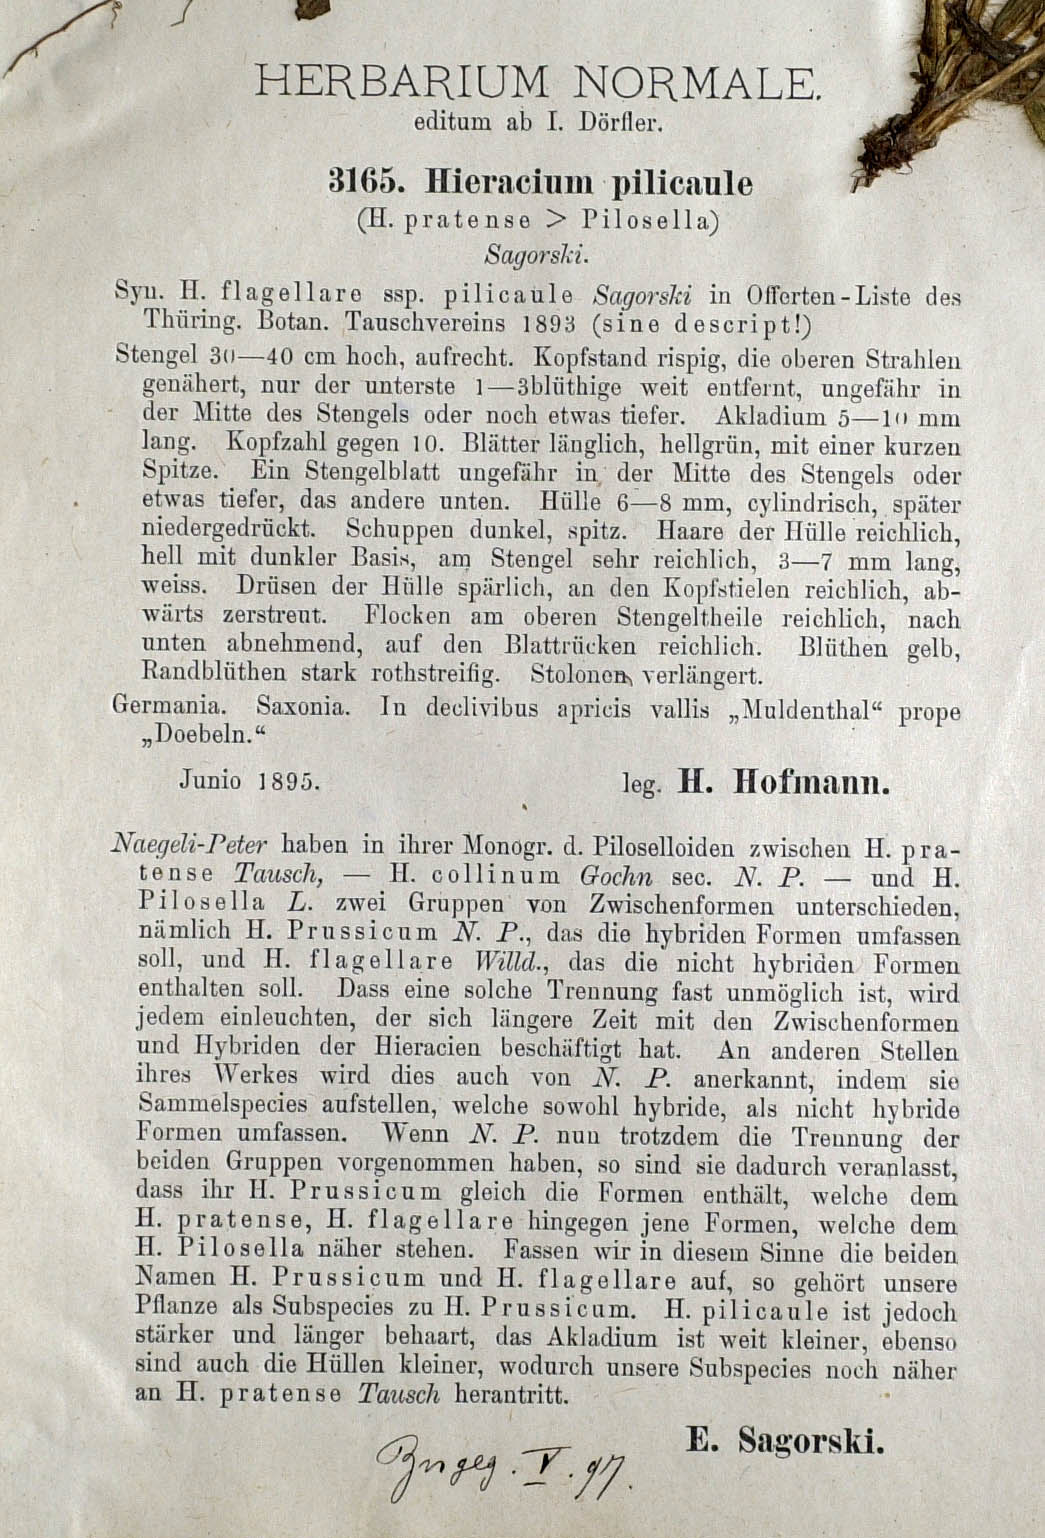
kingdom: Plantae
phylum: Tracheophyta
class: Magnoliopsida
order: Asterales
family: Asteraceae
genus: Pilosella
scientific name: Pilosella prussica
